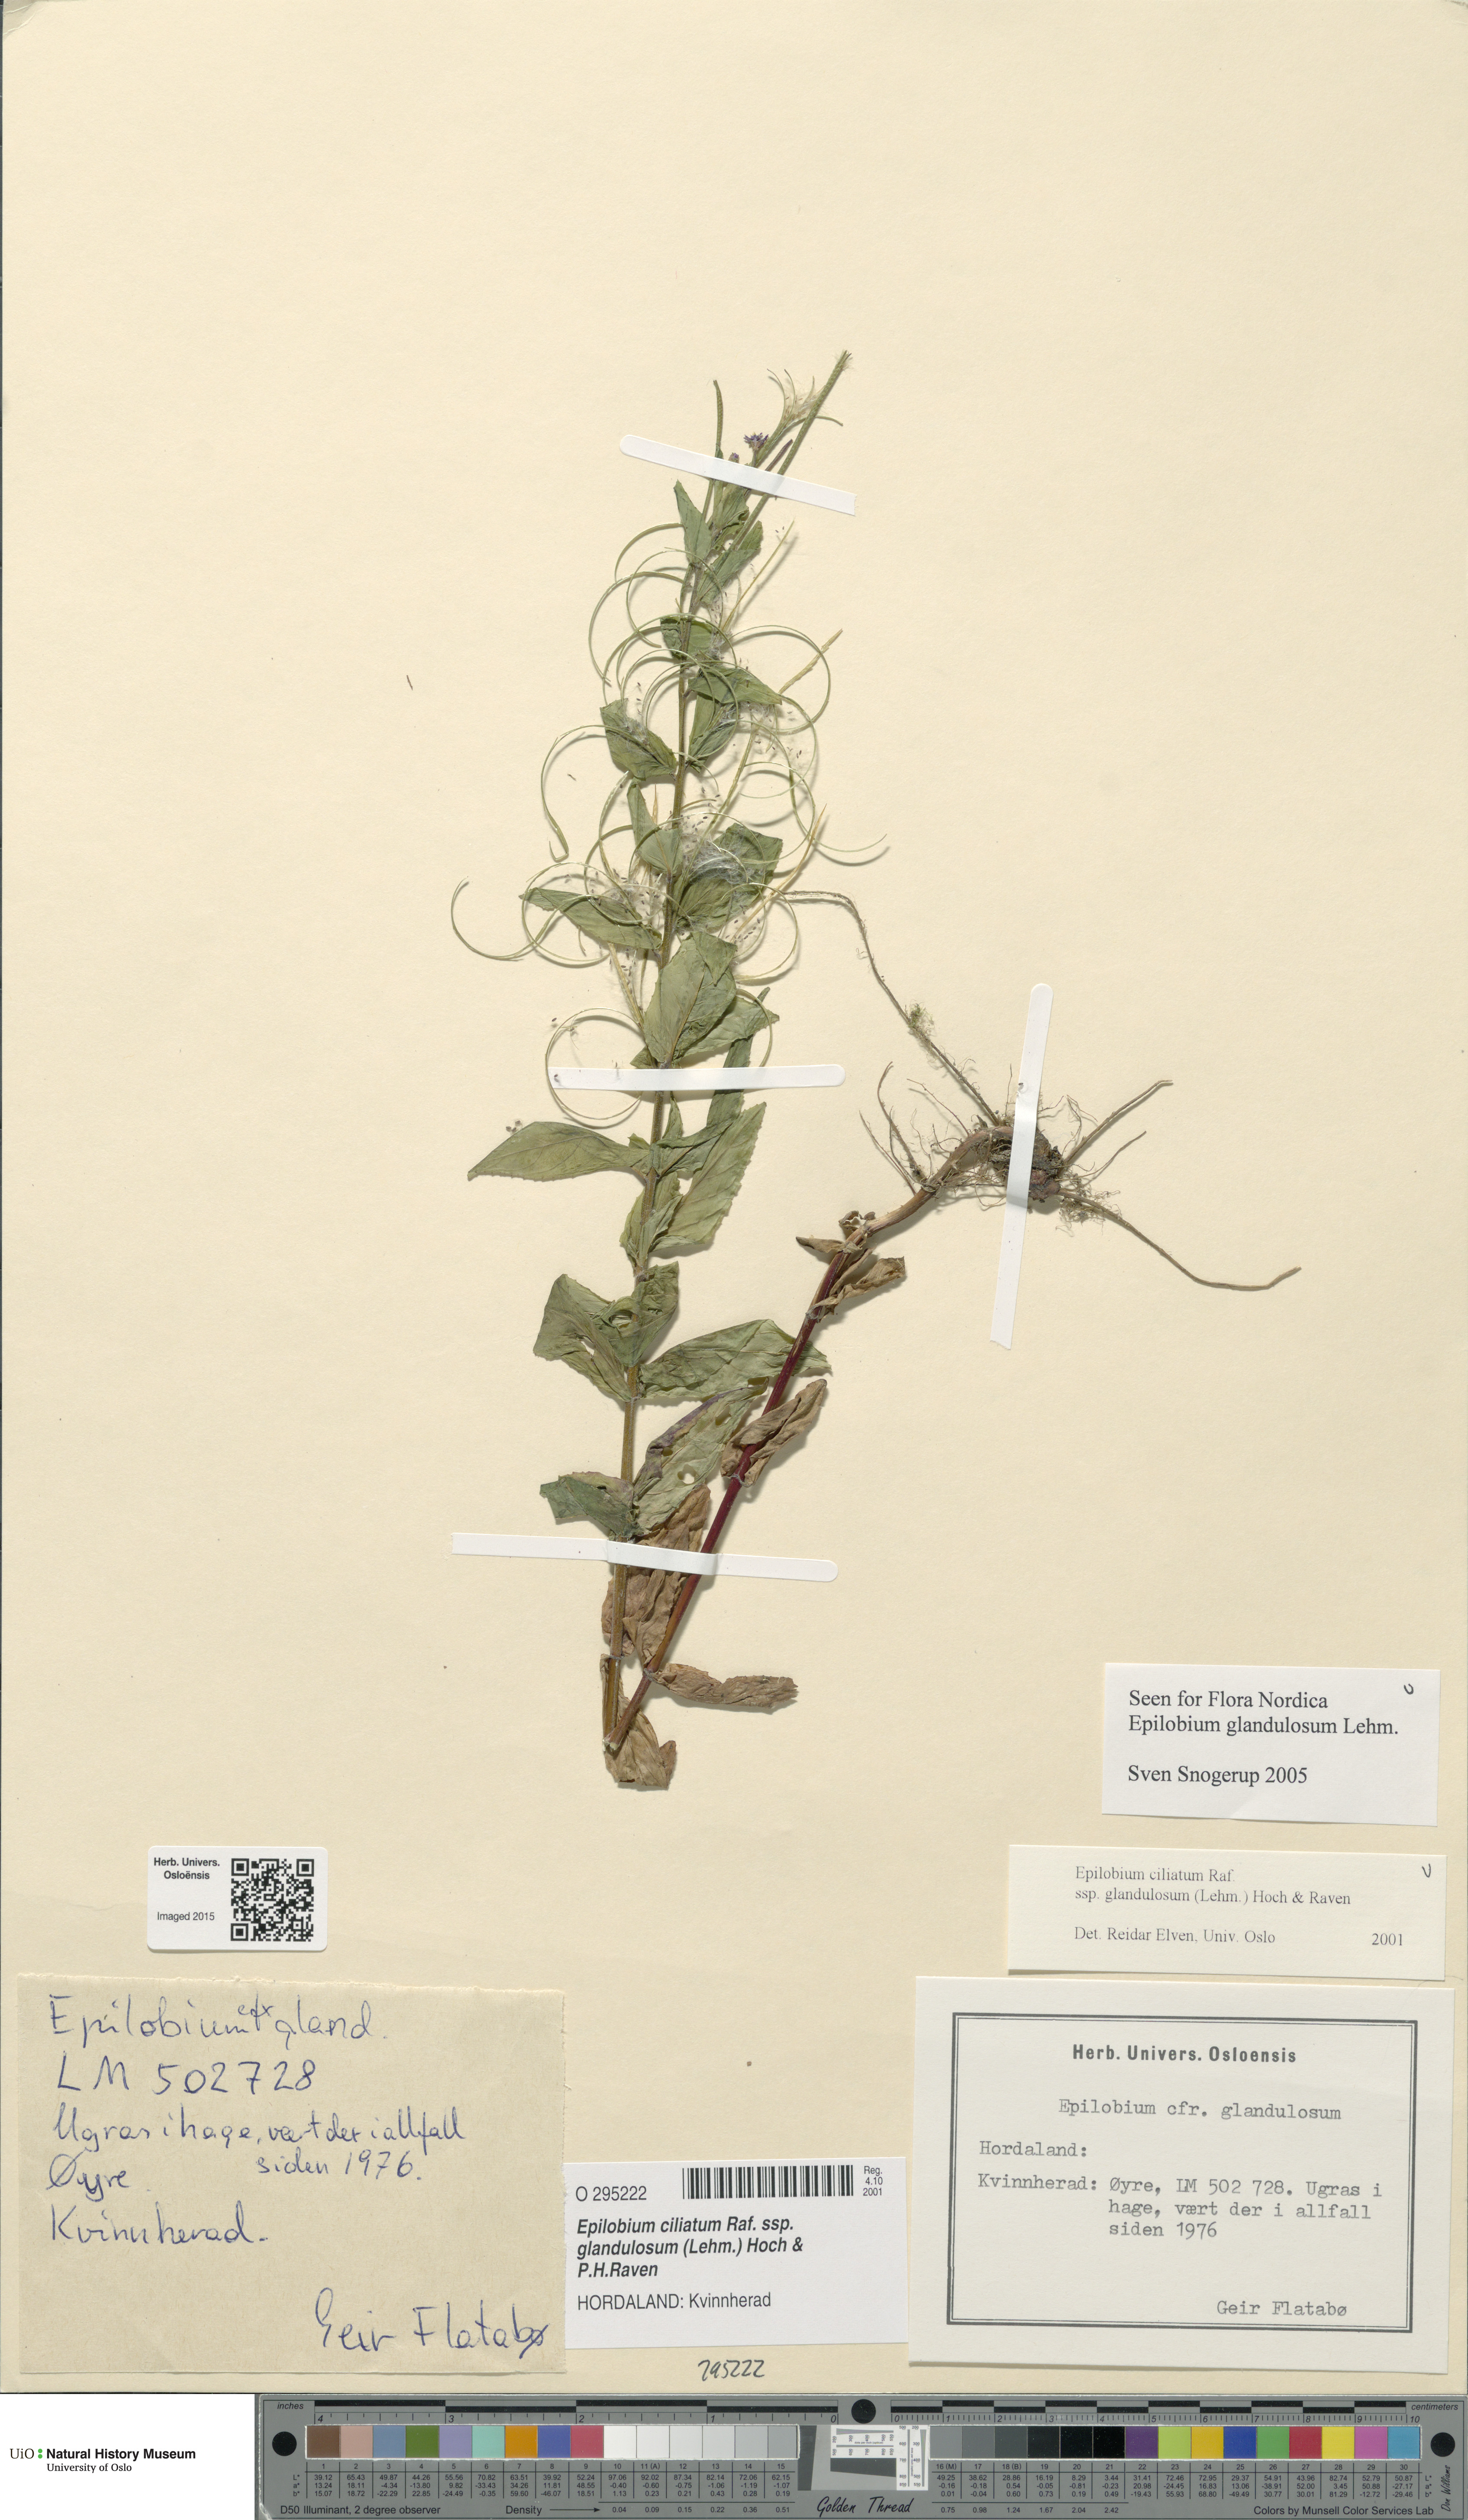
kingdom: Plantae
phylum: Tracheophyta
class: Magnoliopsida
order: Myrtales
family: Onagraceae
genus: Epilobium
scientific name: Epilobium ciliatum
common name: American willowherb
